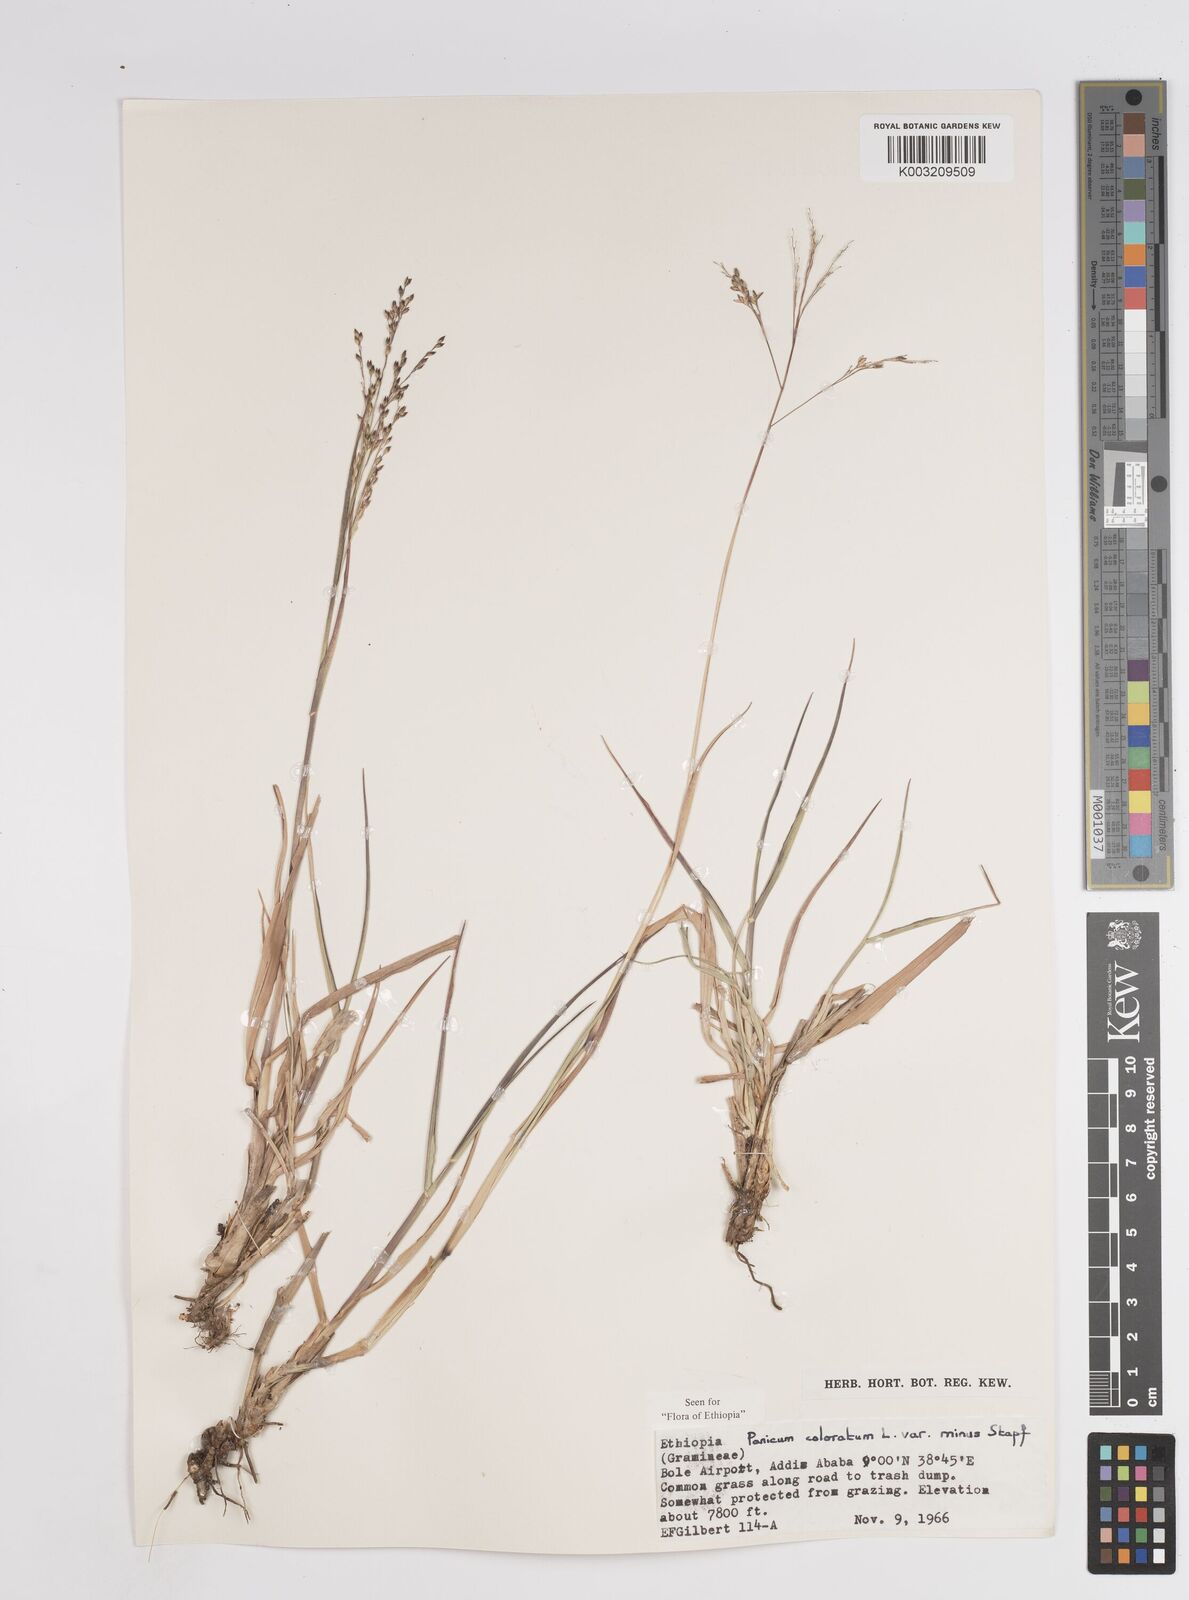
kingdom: Plantae
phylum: Tracheophyta
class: Liliopsida
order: Poales
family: Poaceae
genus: Tricholaena
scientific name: Tricholaena monachne
